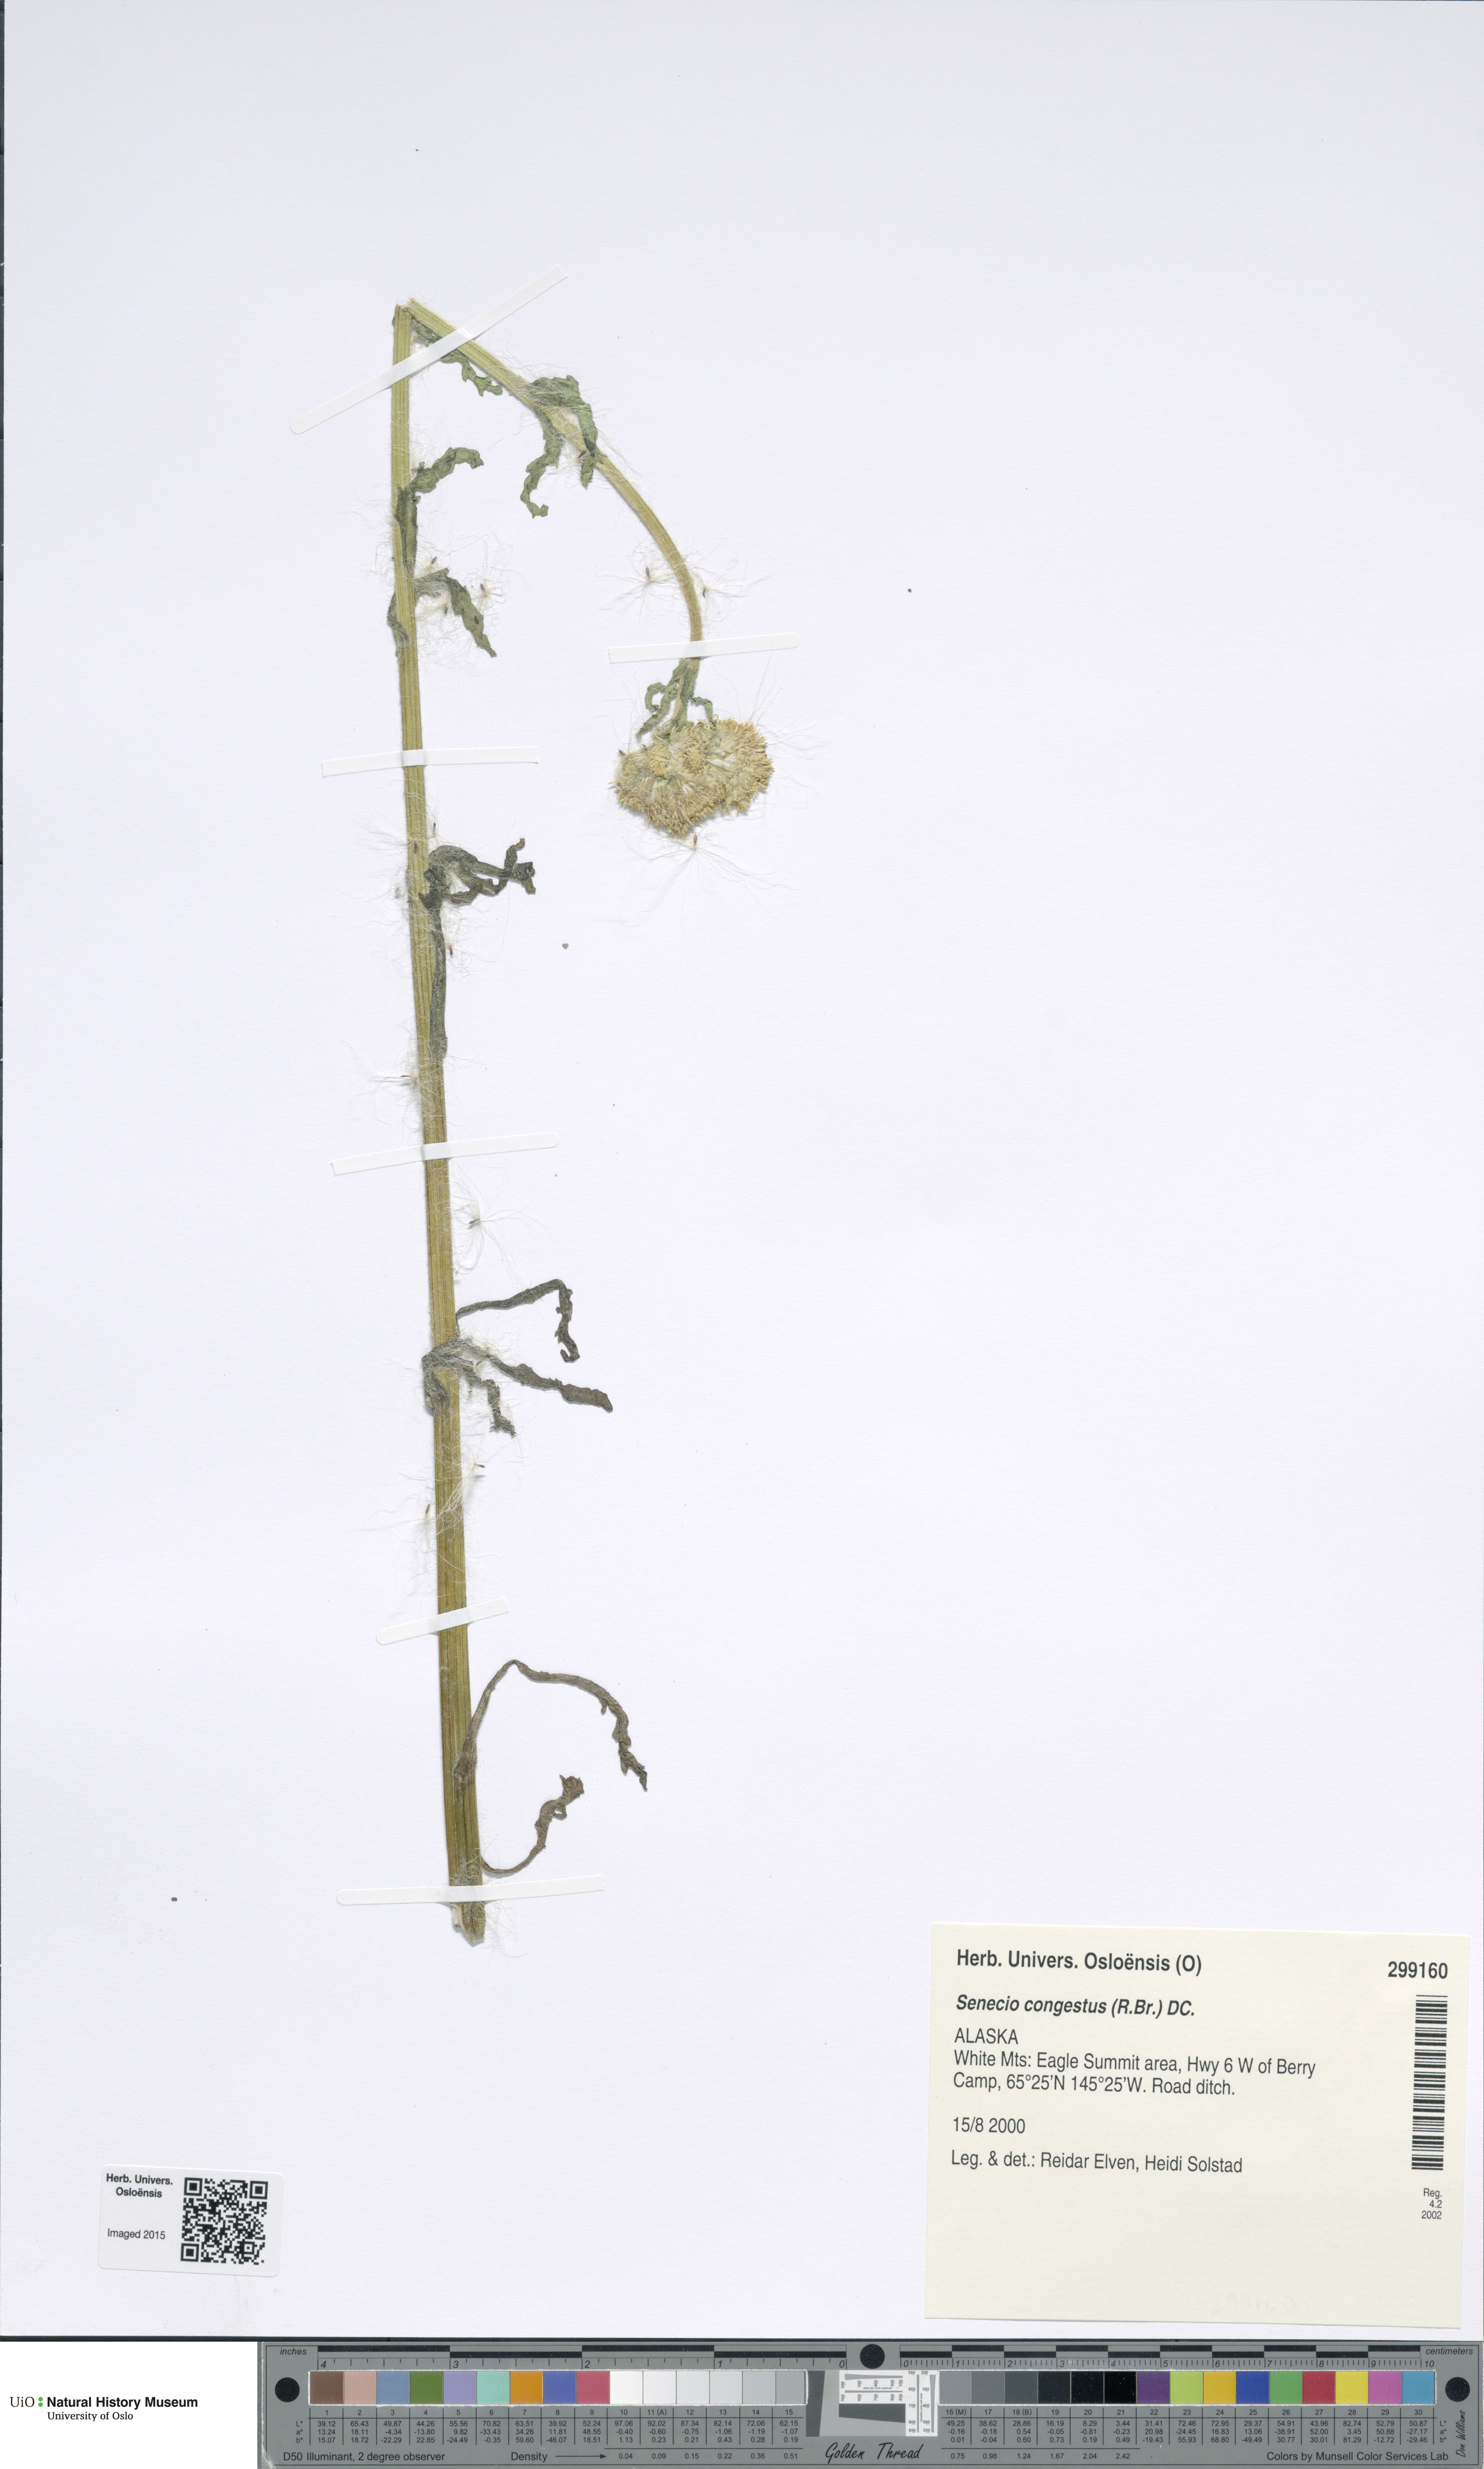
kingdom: Plantae
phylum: Tracheophyta
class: Magnoliopsida
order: Asterales
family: Asteraceae
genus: Tephroseris
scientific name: Tephroseris palustris
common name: Marsh fleawort
